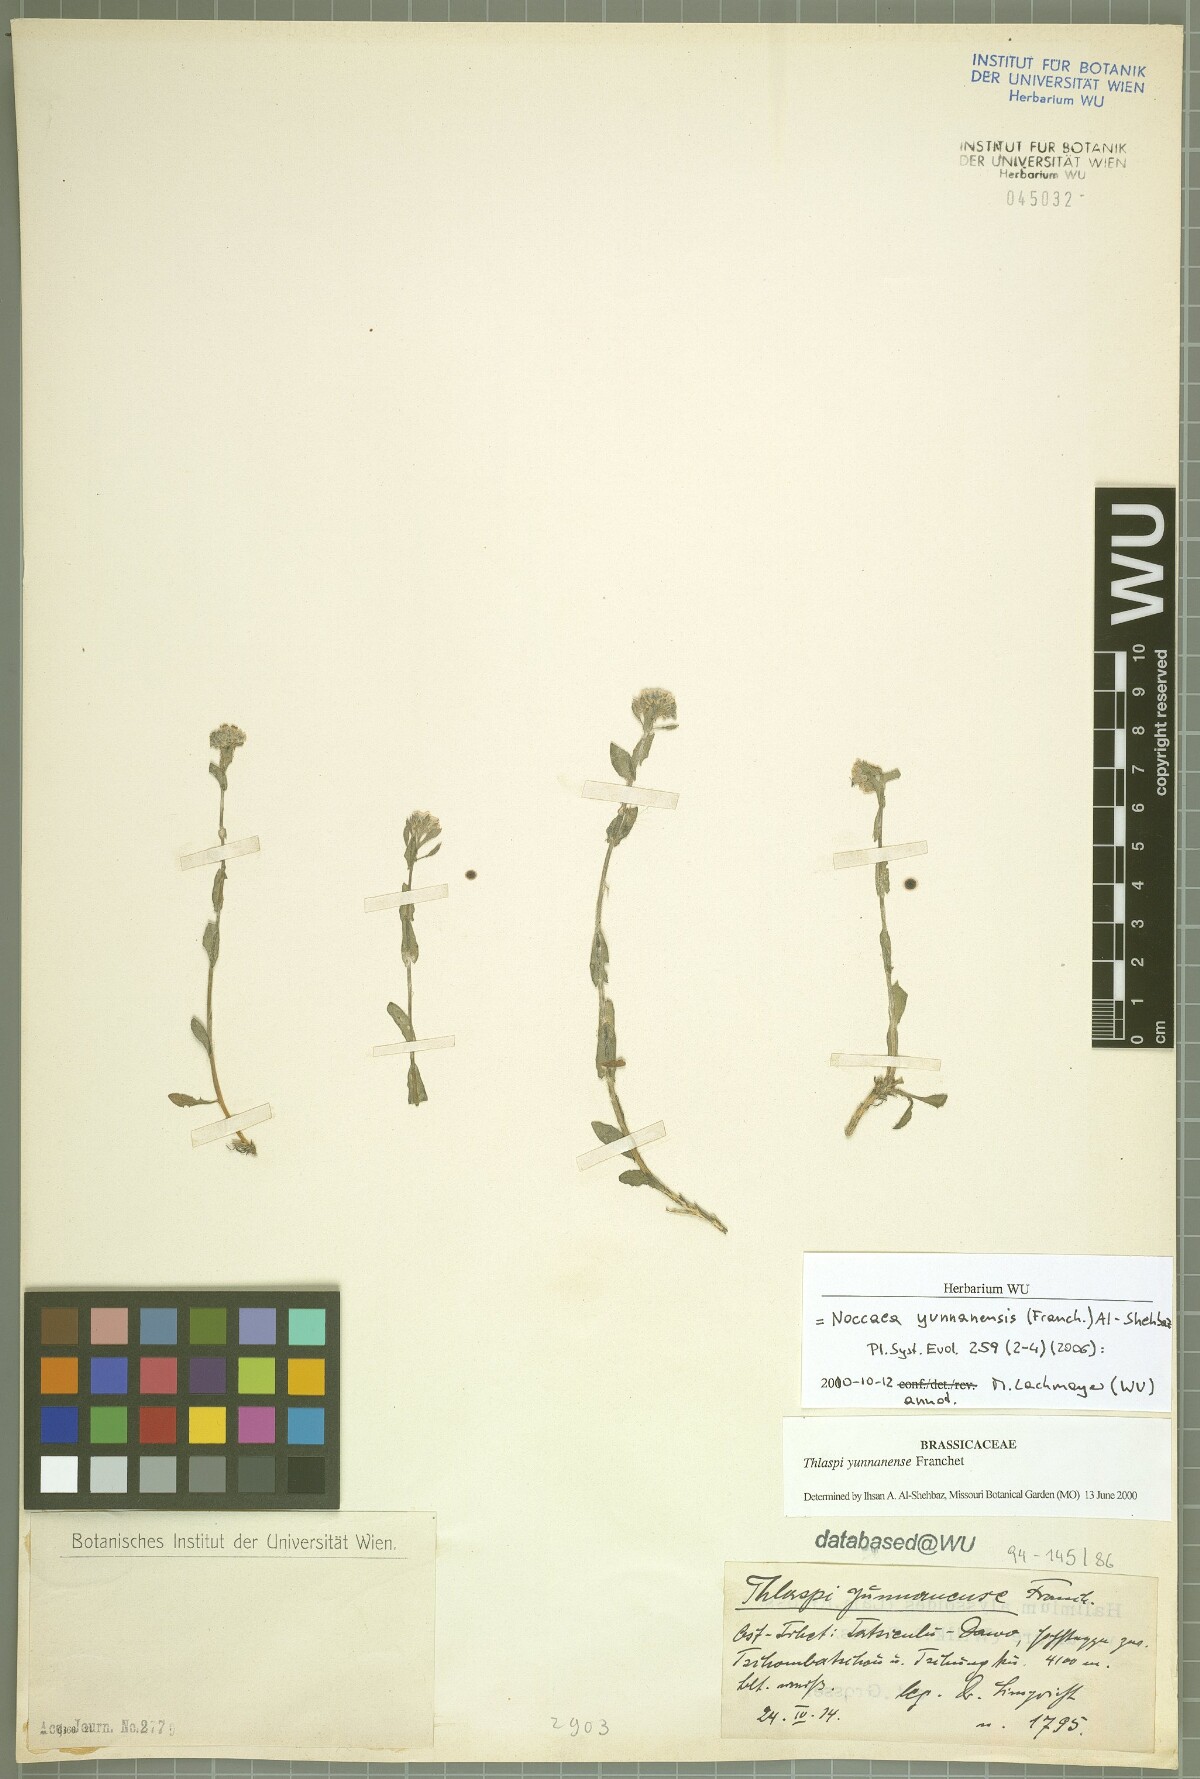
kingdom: Plantae
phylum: Tracheophyta
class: Magnoliopsida
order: Brassicales
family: Brassicaceae
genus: Noccaea
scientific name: Noccaea yunnanensis
